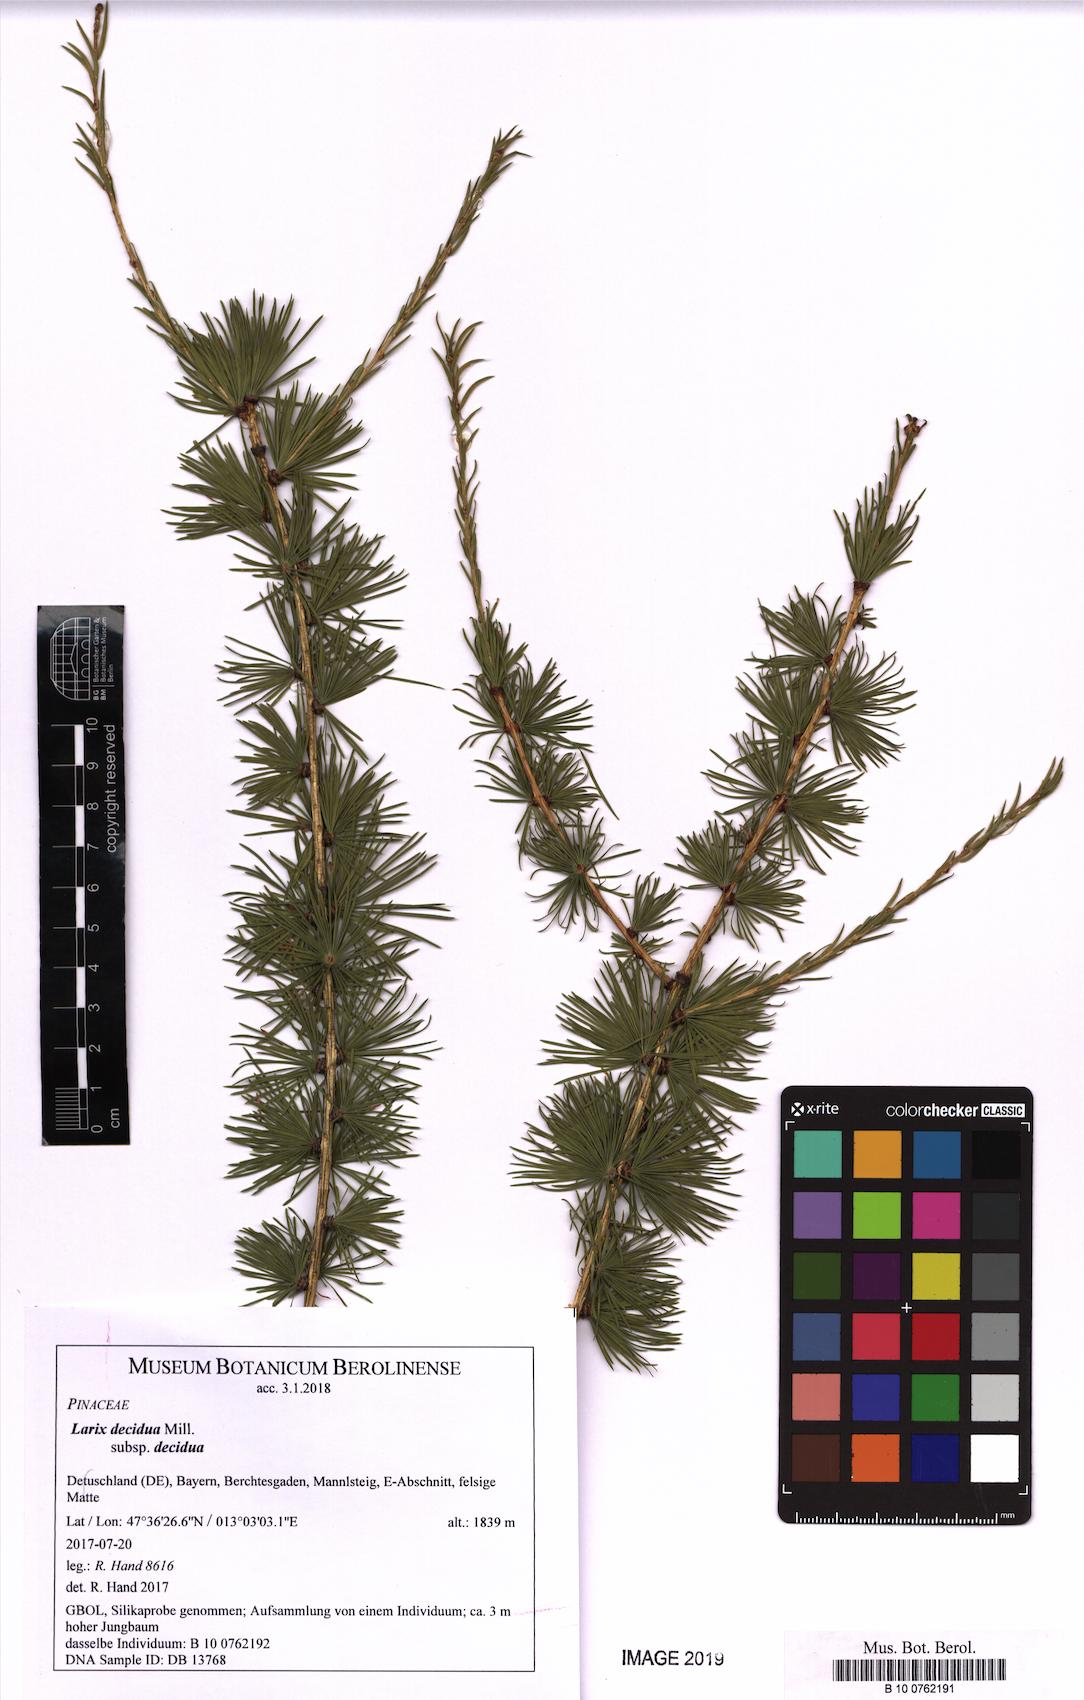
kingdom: Plantae
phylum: Tracheophyta
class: Pinopsida
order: Pinales
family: Pinaceae
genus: Larix
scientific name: Larix decidua
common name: European larch
